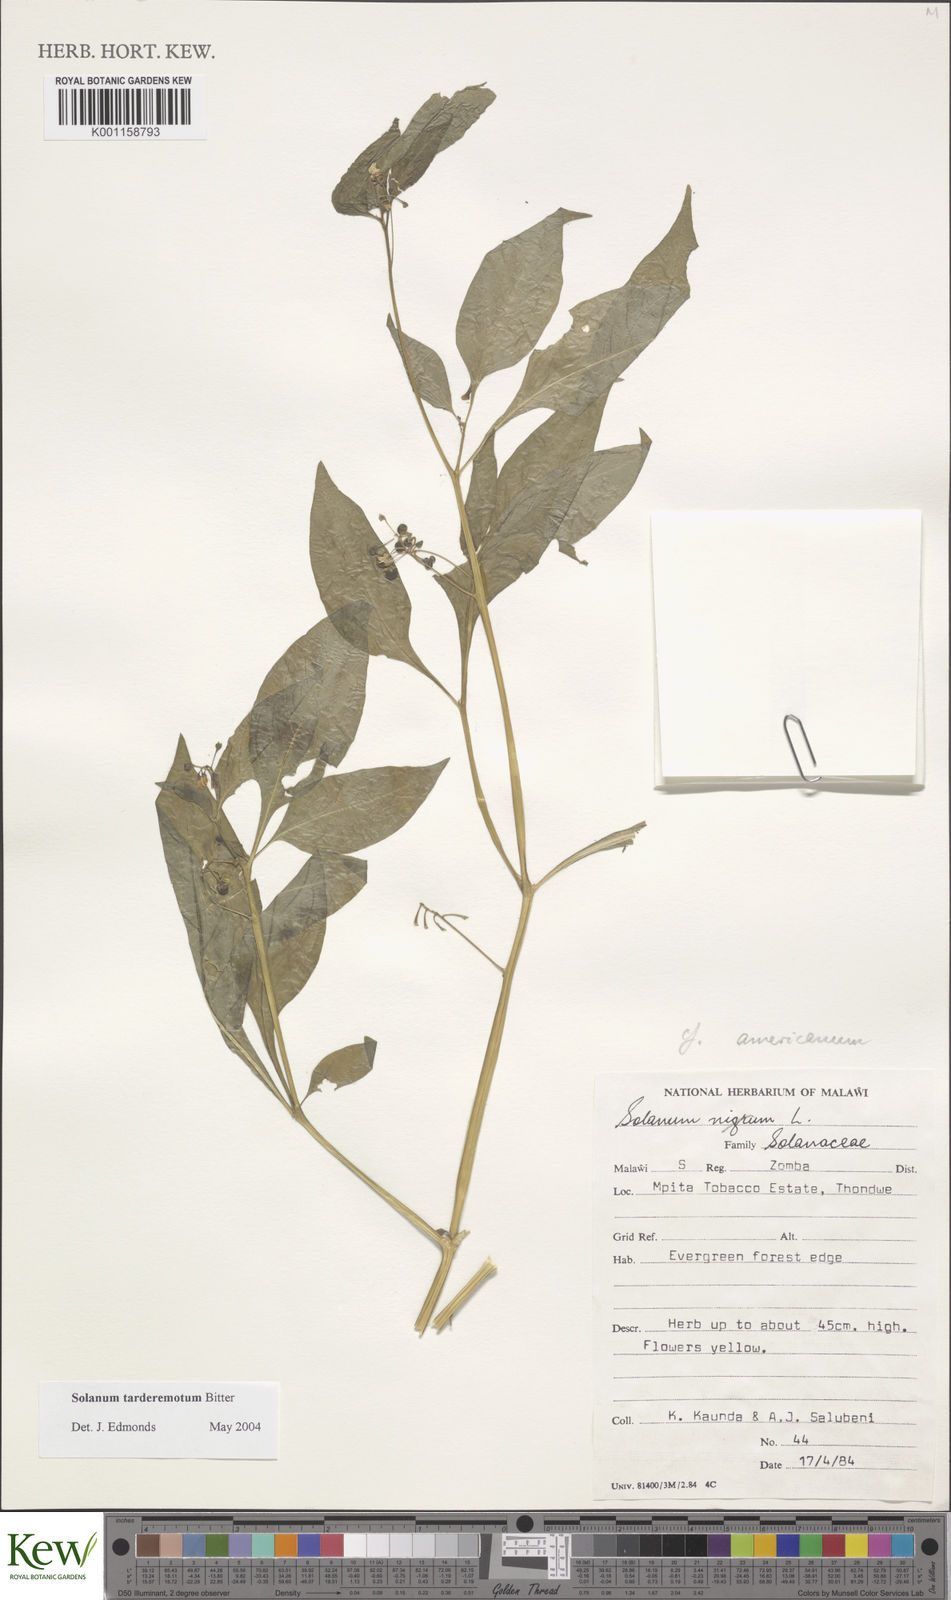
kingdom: Plantae
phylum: Tracheophyta
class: Magnoliopsida
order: Solanales
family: Solanaceae
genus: Solanum
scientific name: Solanum tarderemotum
